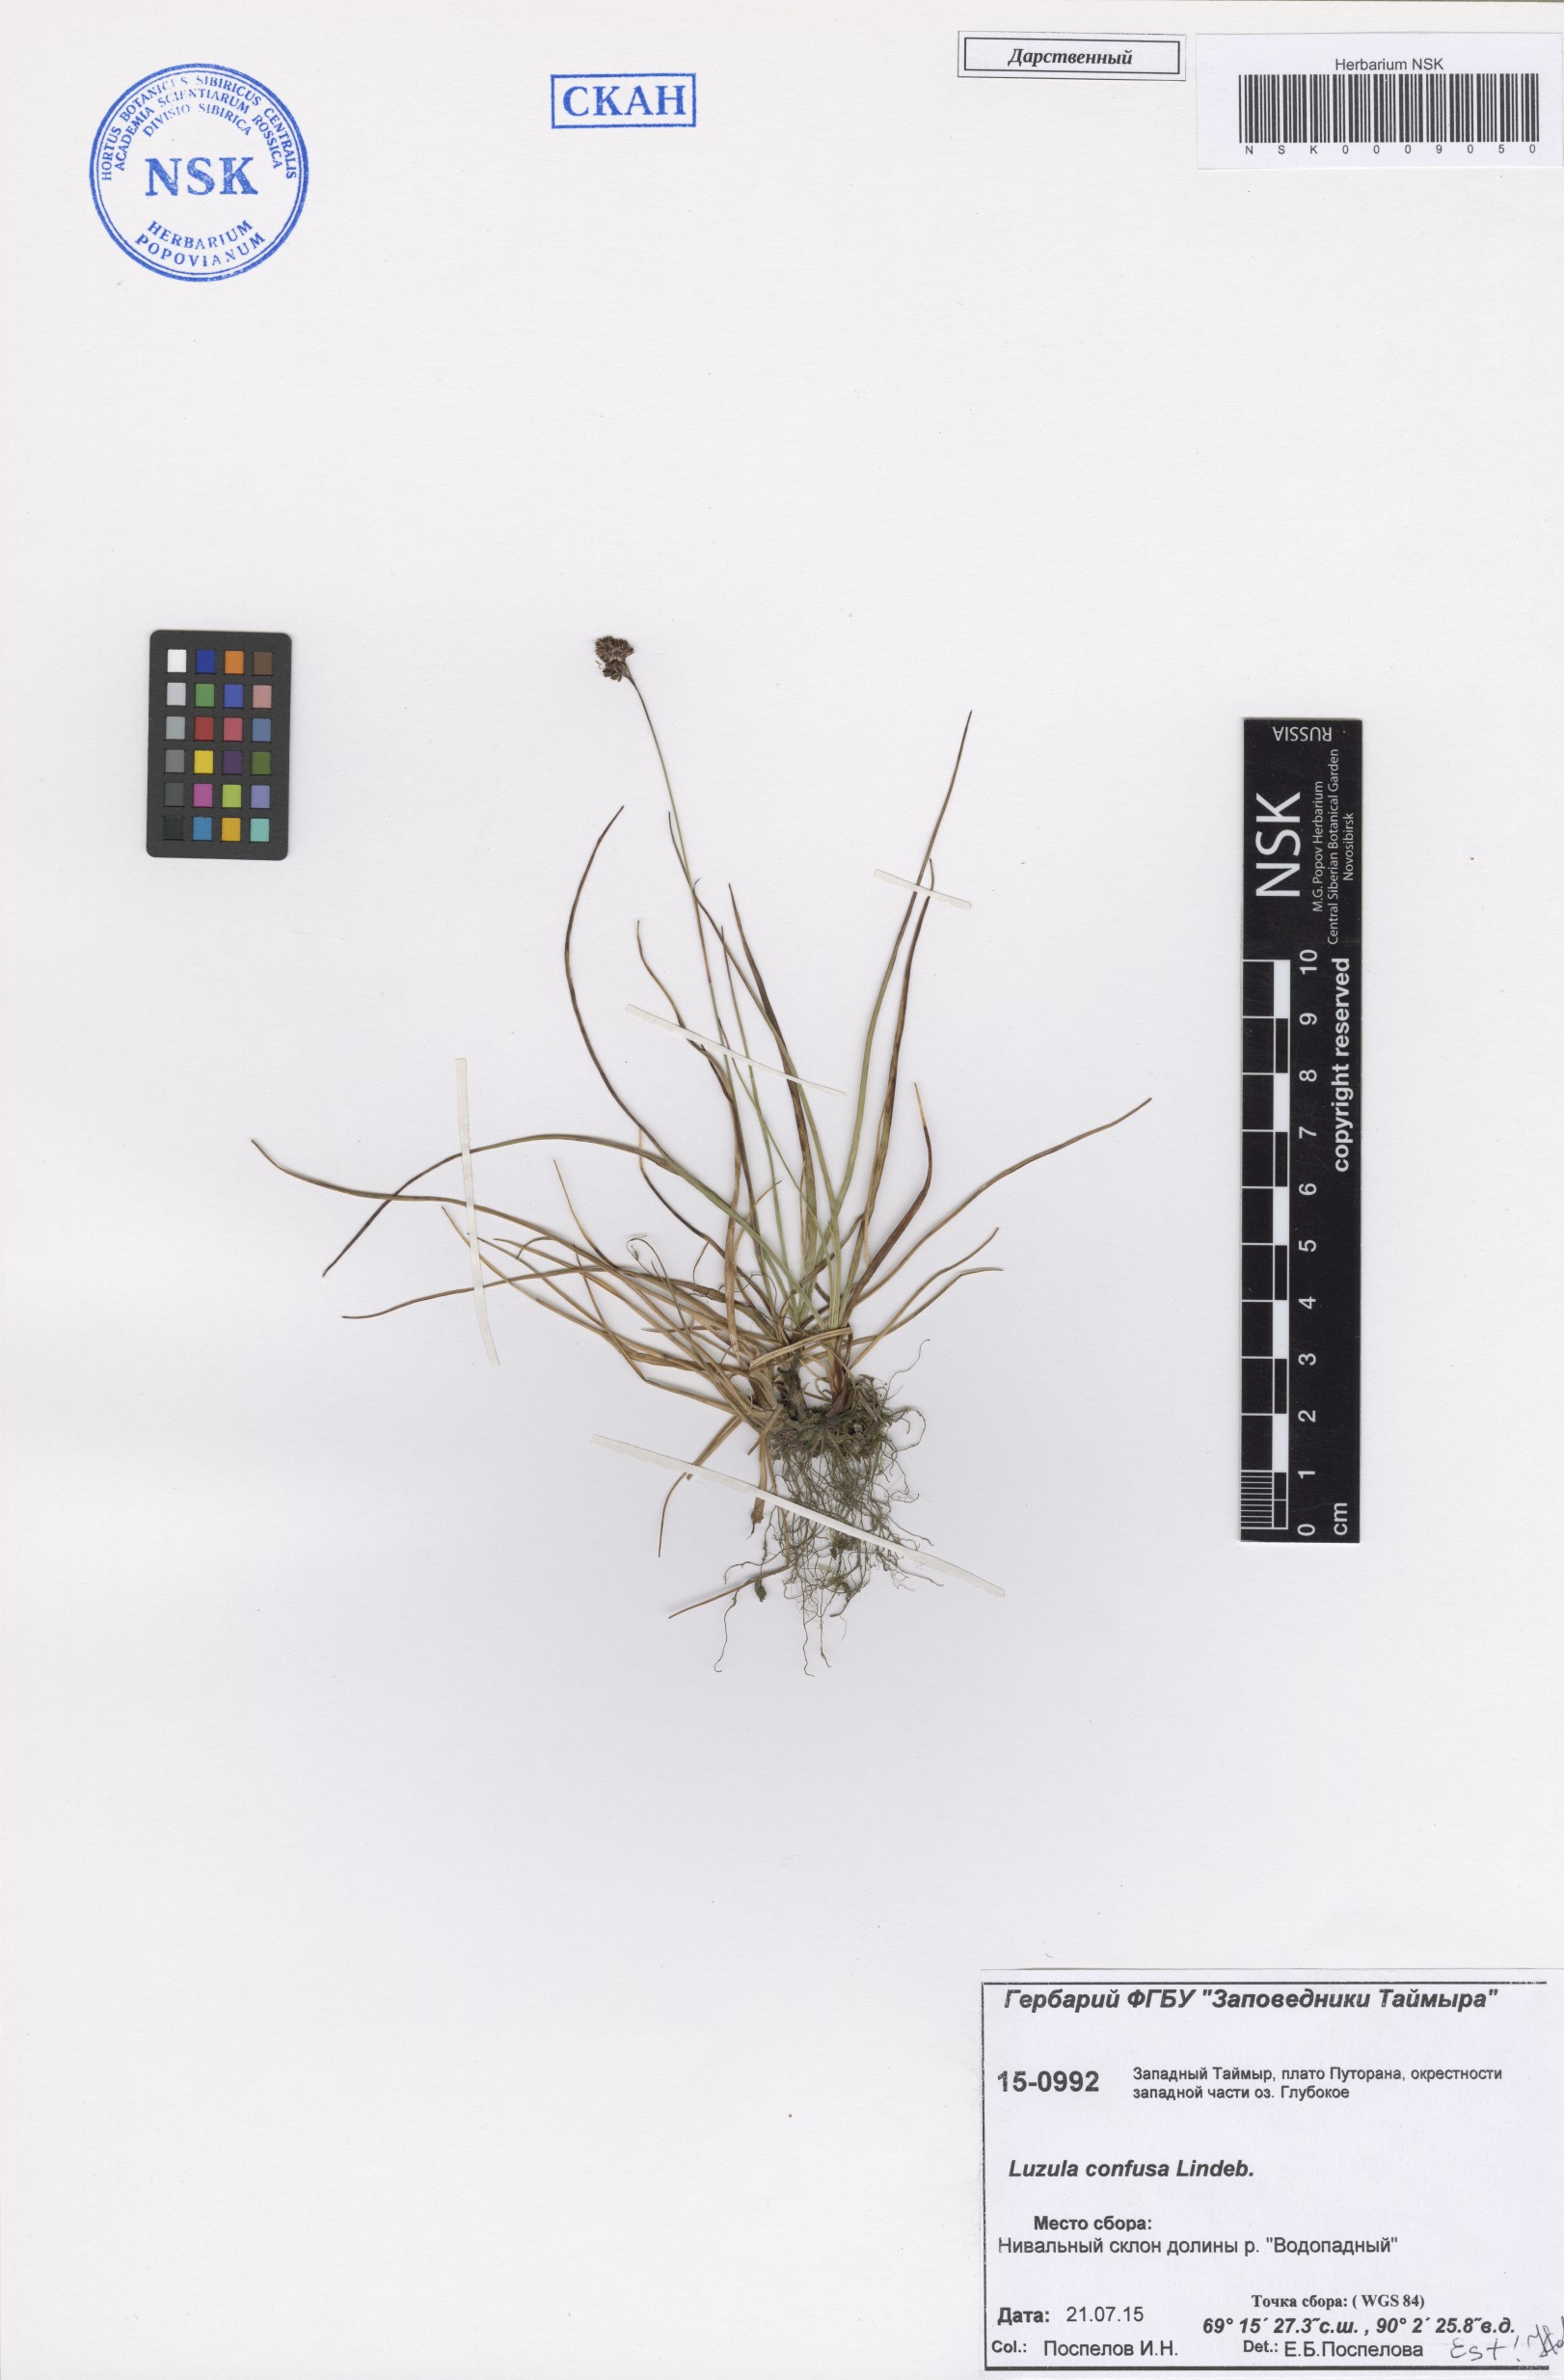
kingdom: Plantae
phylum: Tracheophyta
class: Liliopsida
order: Poales
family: Juncaceae
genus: Luzula
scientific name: Luzula confusa
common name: Northern wood rush
